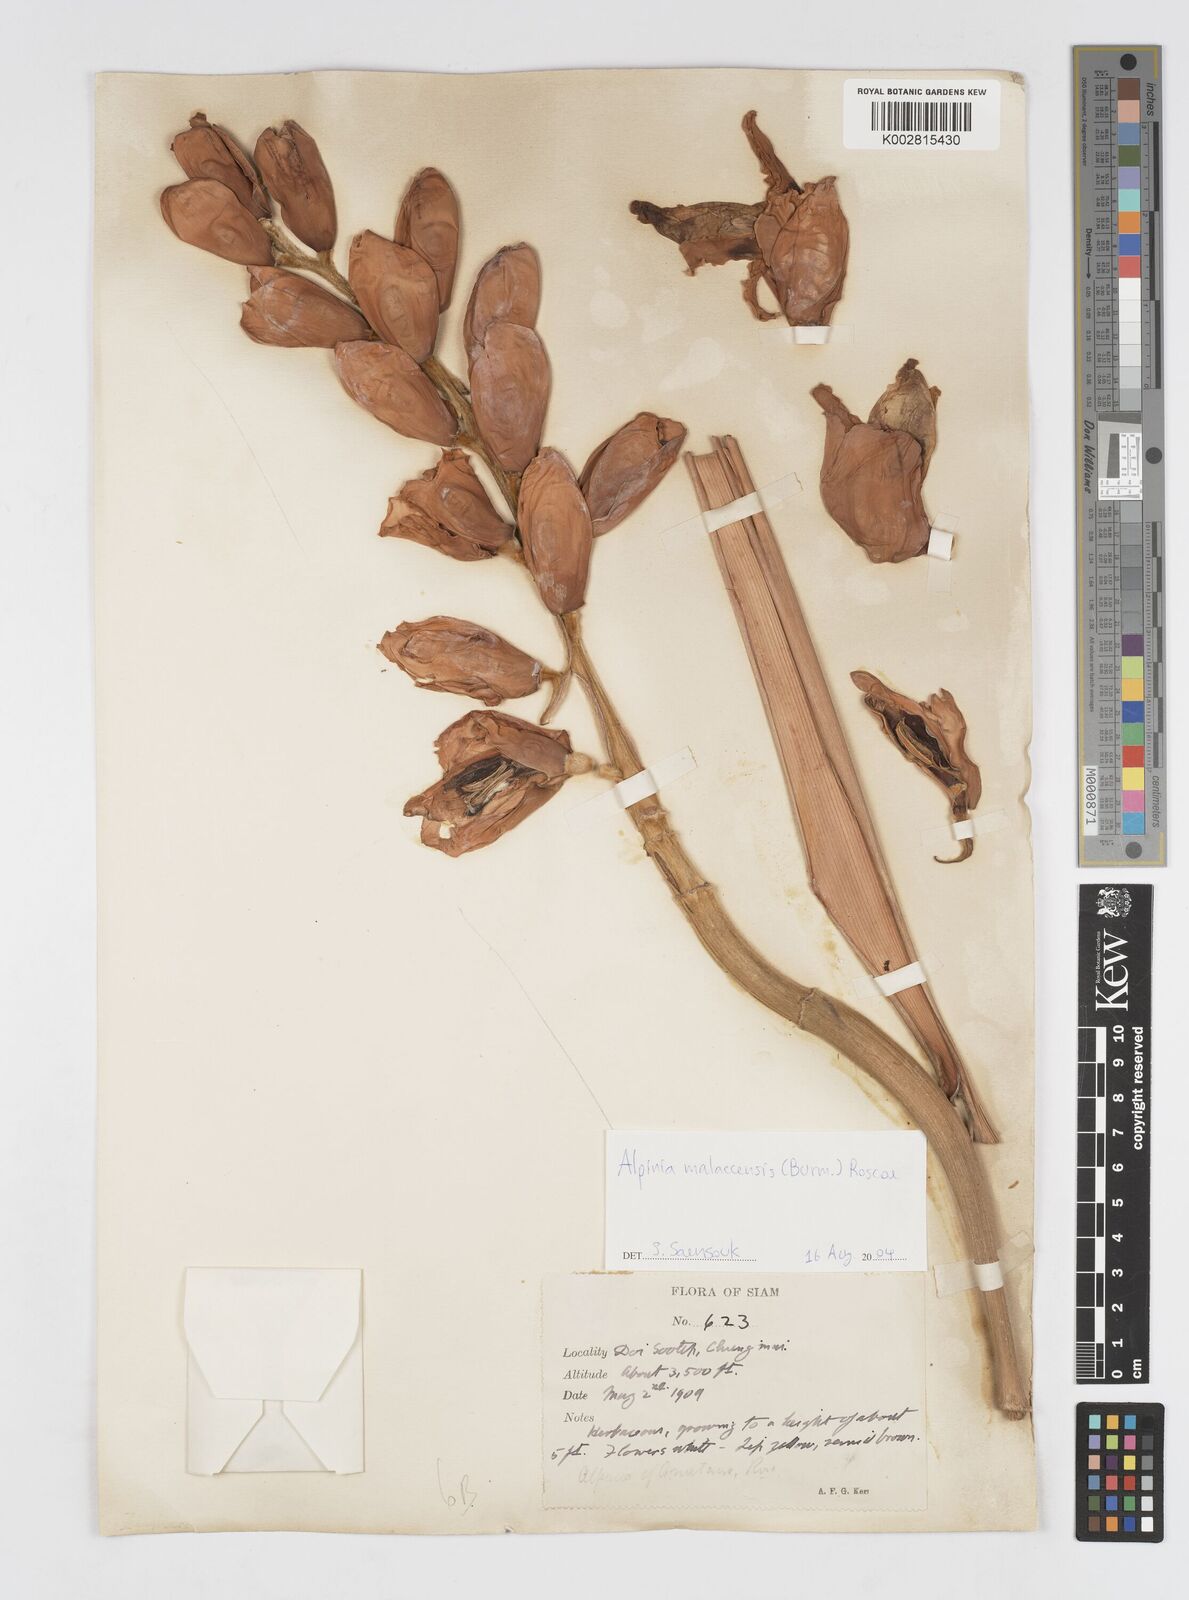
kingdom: Plantae
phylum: Tracheophyta
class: Liliopsida
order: Zingiberales
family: Zingiberaceae
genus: Alpinia
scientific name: Alpinia malaccensis
